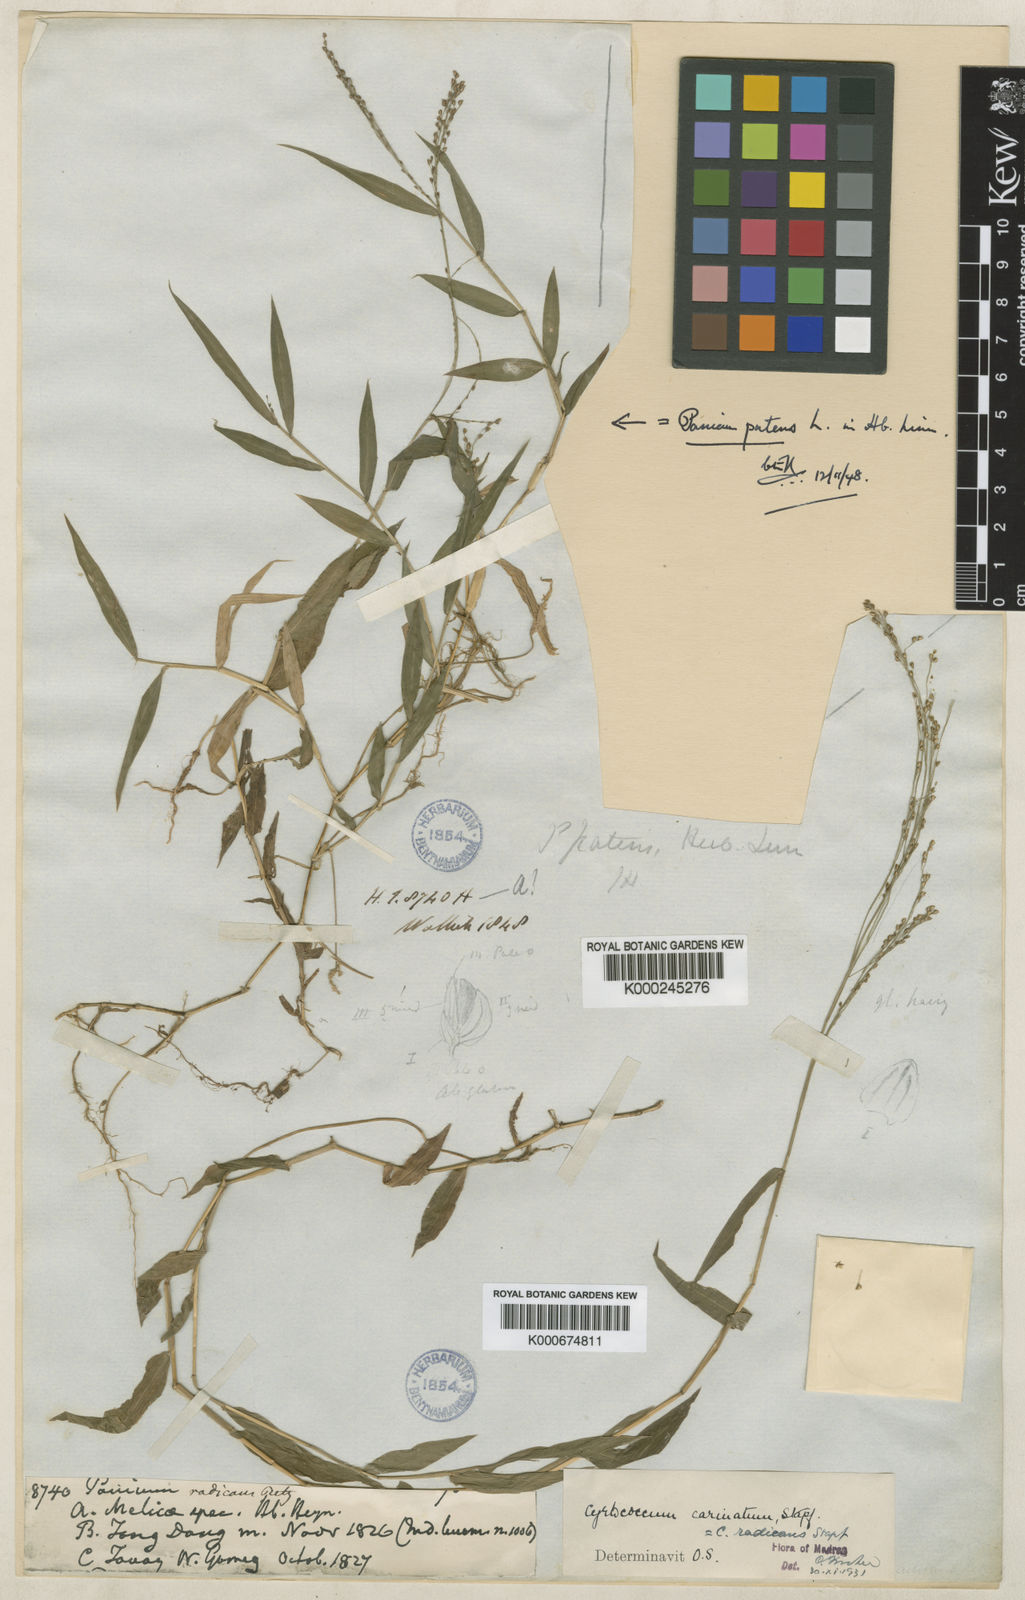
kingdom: Plantae
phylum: Tracheophyta
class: Liliopsida
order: Poales
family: Poaceae
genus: Cyrtococcum
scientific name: Cyrtococcum patens
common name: Broad-leaved bowgrass
